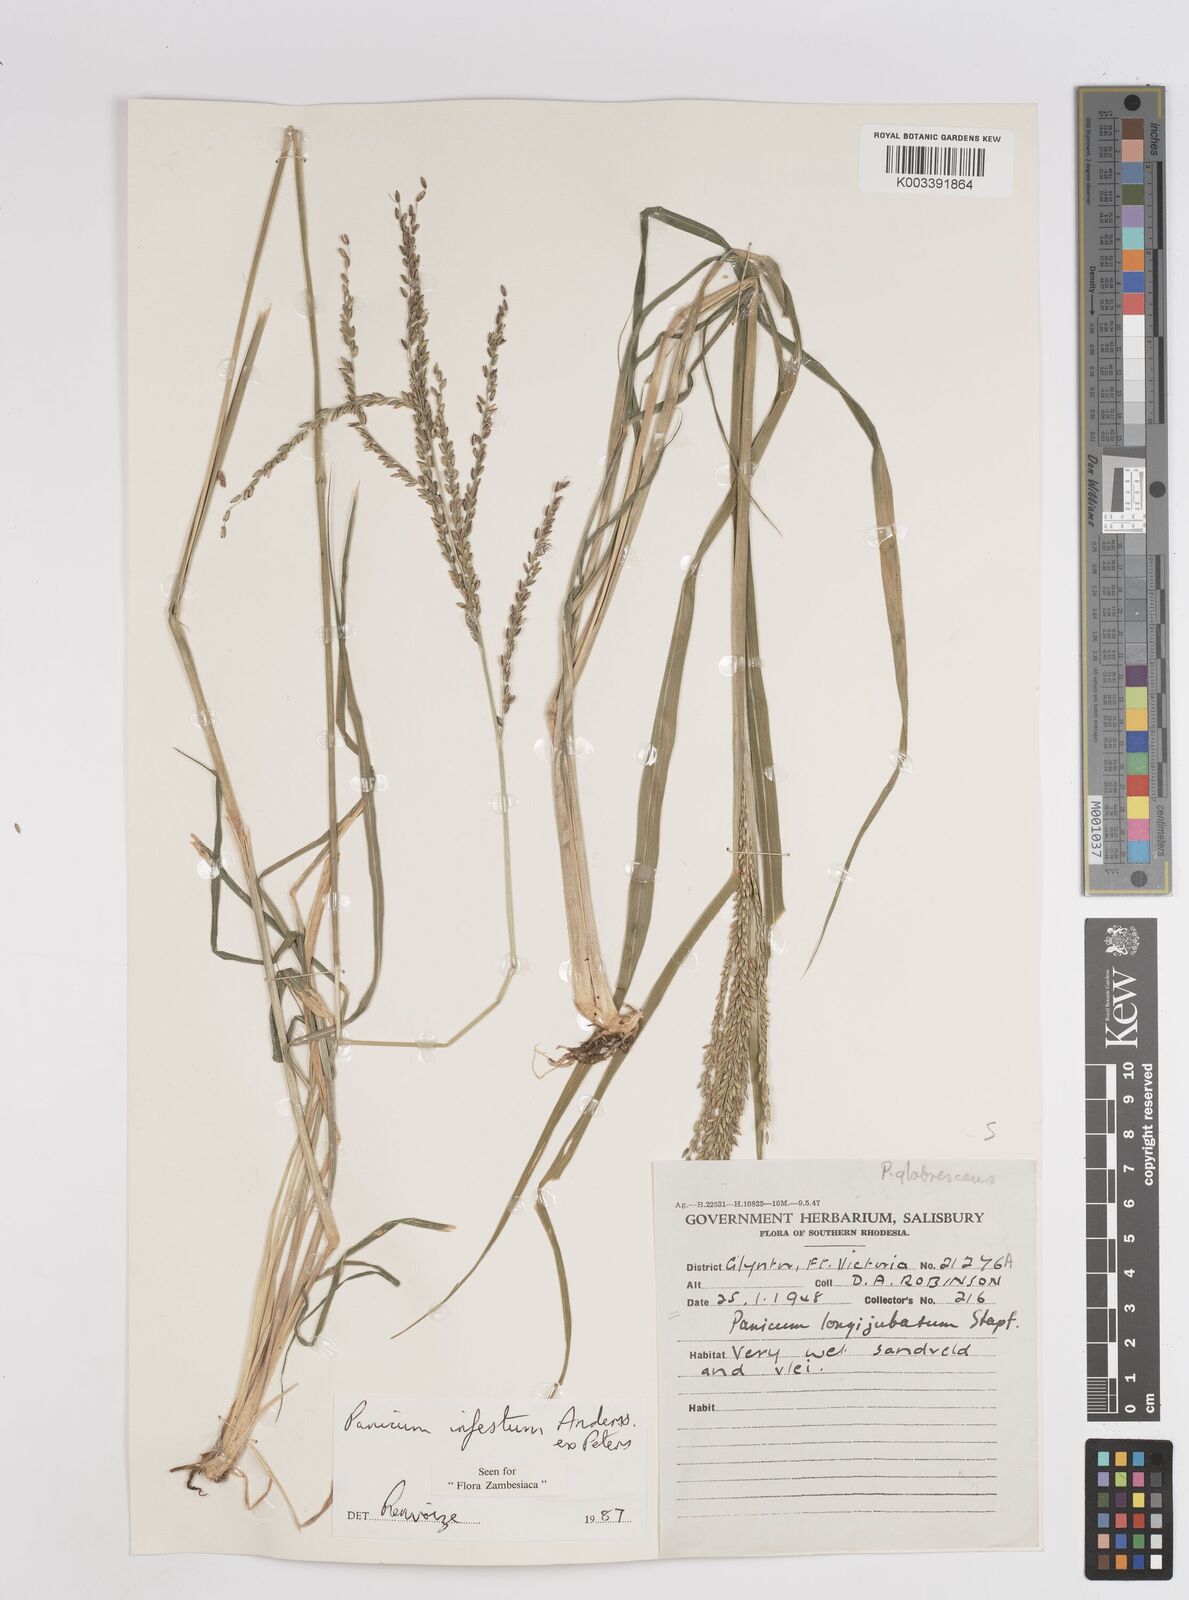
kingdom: Plantae
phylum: Tracheophyta
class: Liliopsida
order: Poales
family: Poaceae
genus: Megathyrsus
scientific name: Megathyrsus infestus
